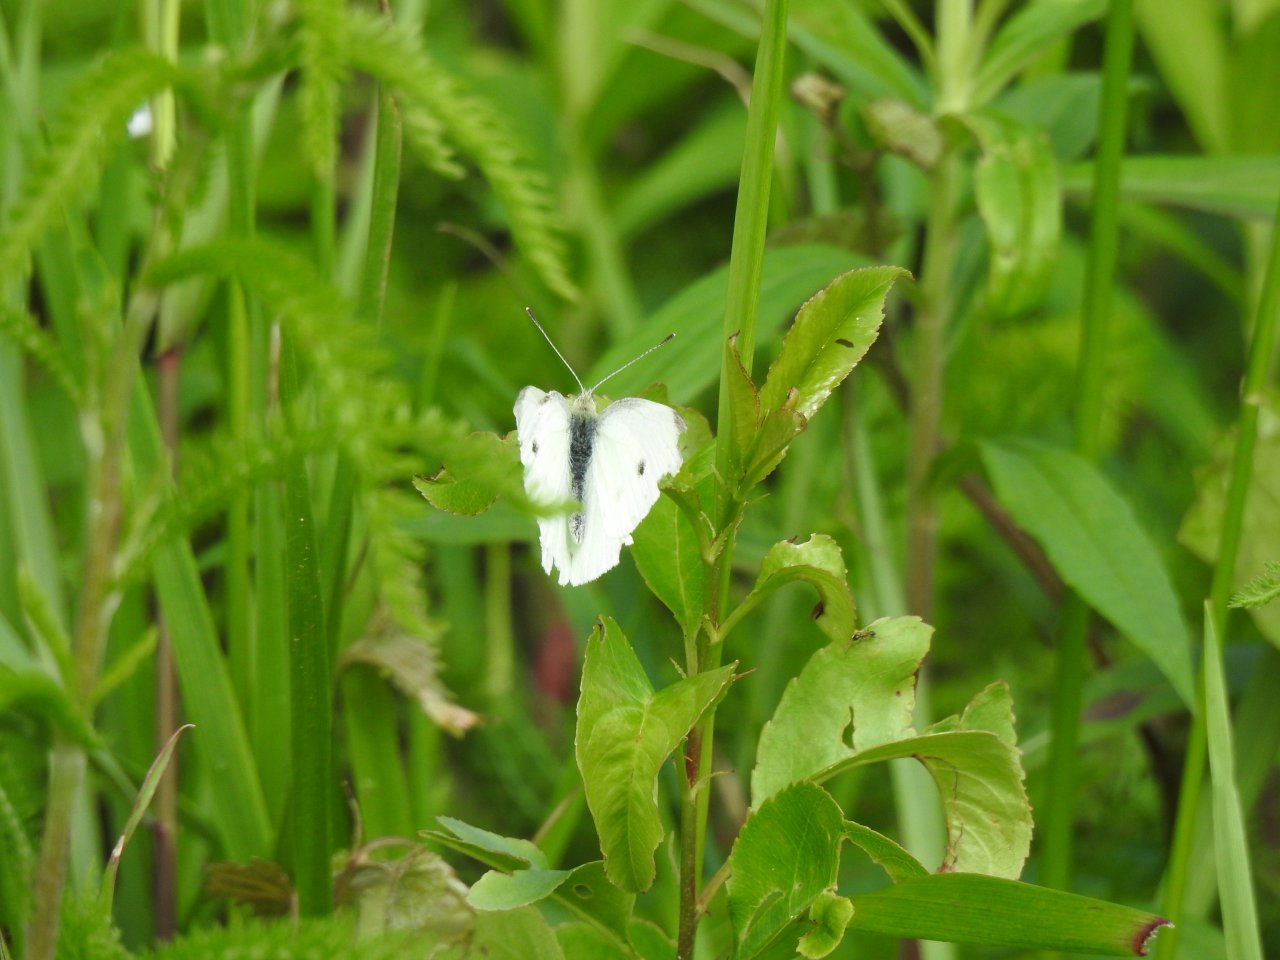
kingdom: Animalia
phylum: Arthropoda
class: Insecta
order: Lepidoptera
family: Pieridae
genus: Pieris
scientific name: Pieris rapae
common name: Cabbage White
